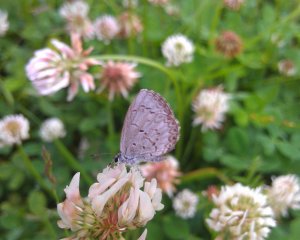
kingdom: Animalia
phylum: Arthropoda
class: Insecta
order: Lepidoptera
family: Lycaenidae
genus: Celastrina
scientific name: Celastrina
